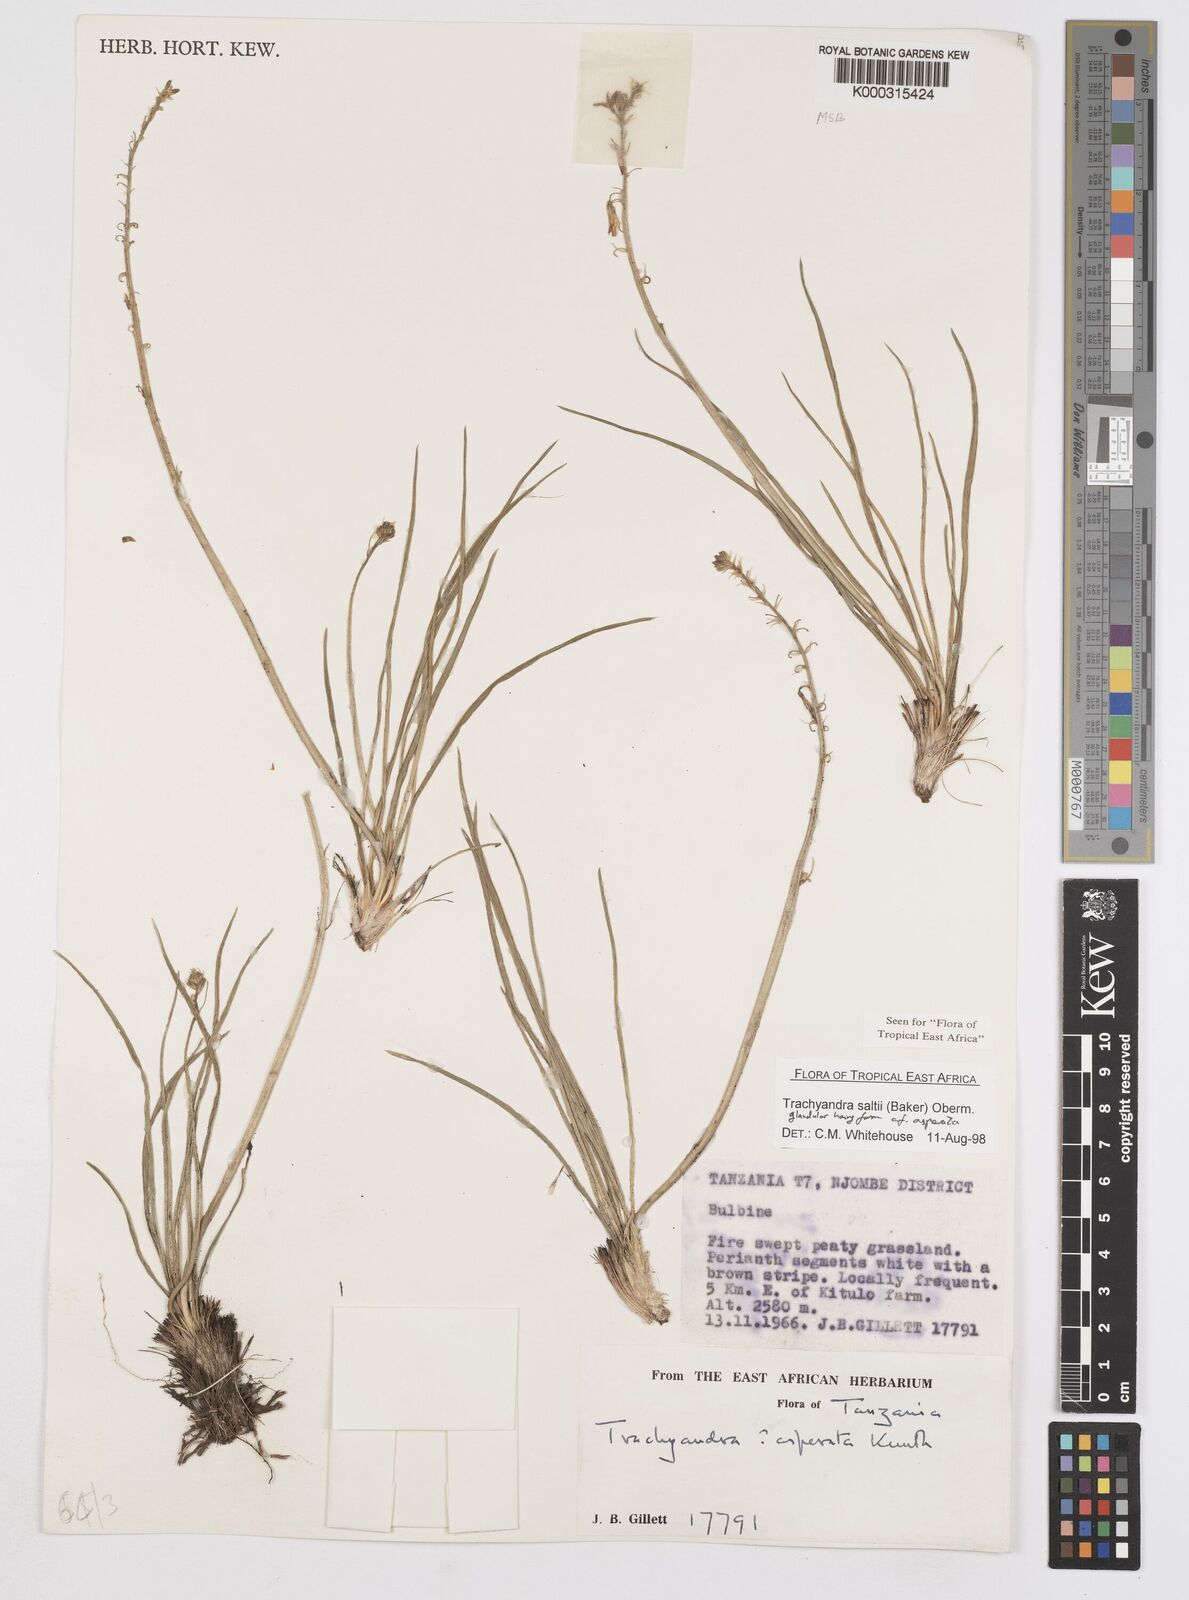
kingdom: Plantae
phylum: Tracheophyta
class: Liliopsida
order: Asparagales
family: Asphodelaceae
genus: Trachyandra
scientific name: Trachyandra malosana
